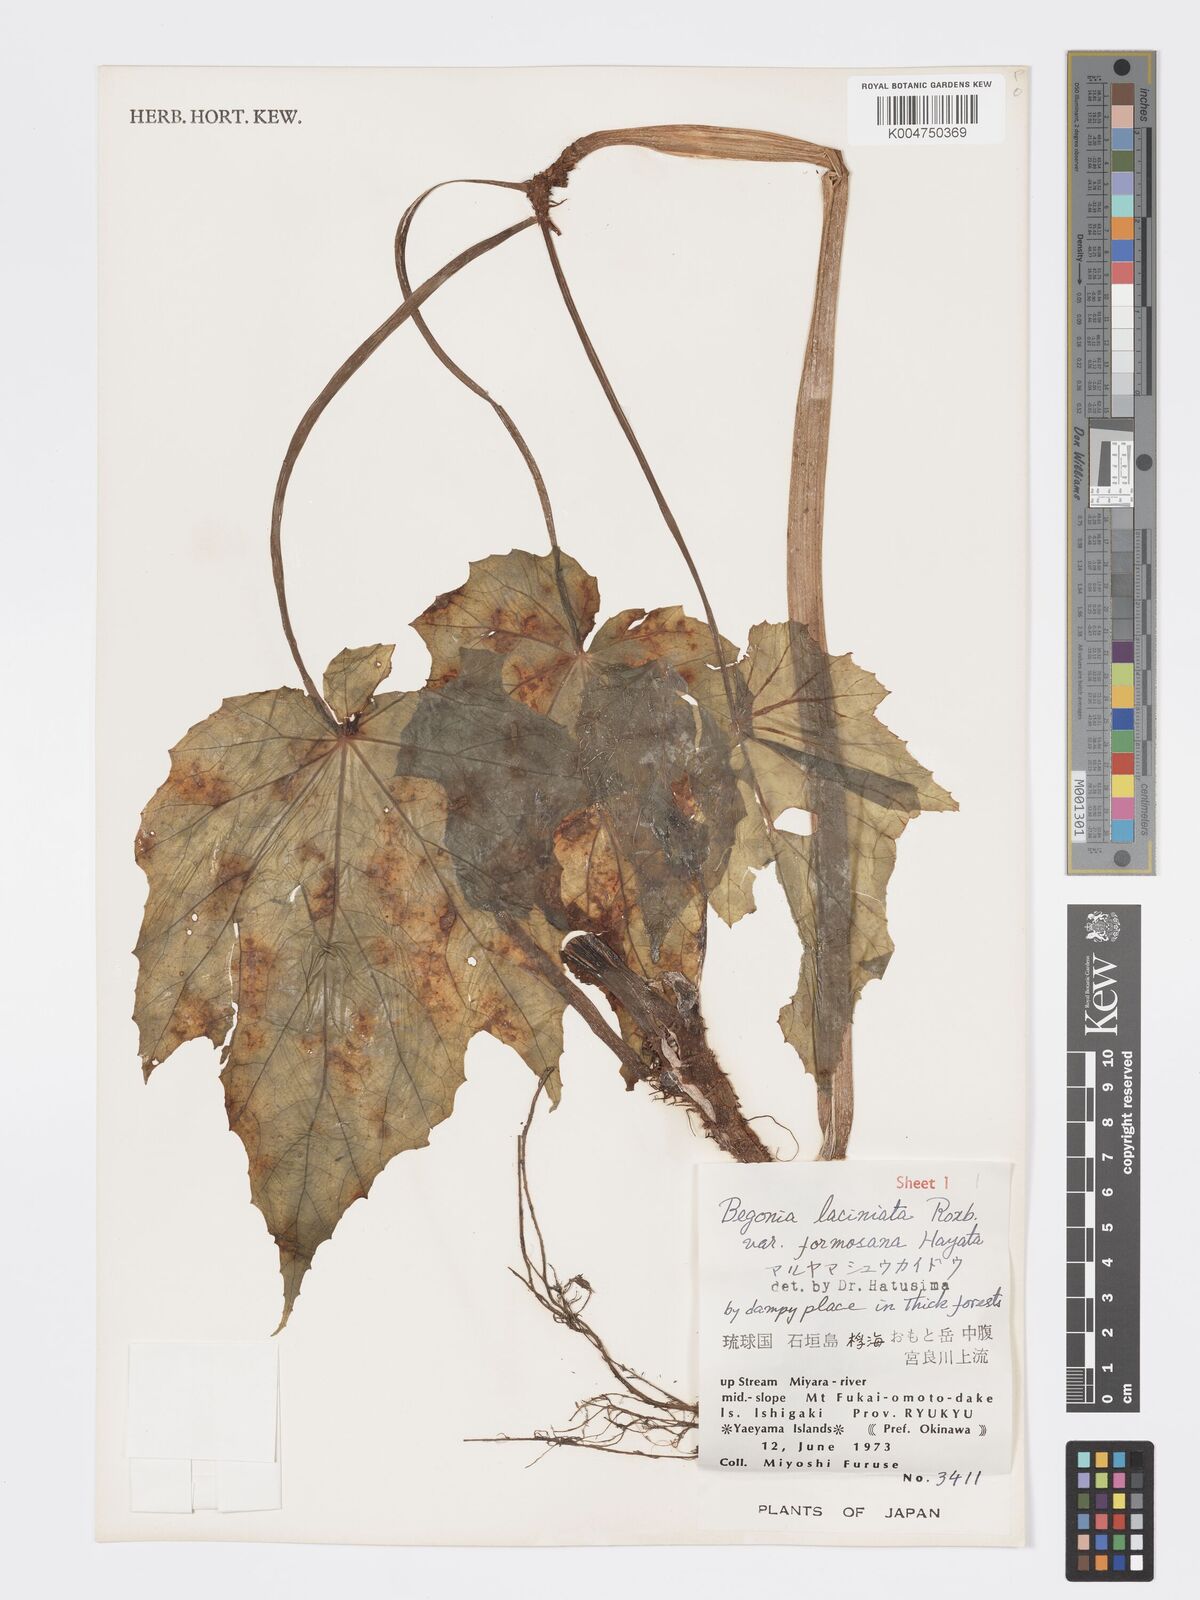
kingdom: Plantae
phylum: Tracheophyta
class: Magnoliopsida
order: Cucurbitales
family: Begoniaceae
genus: Begonia
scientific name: Begonia palmata
